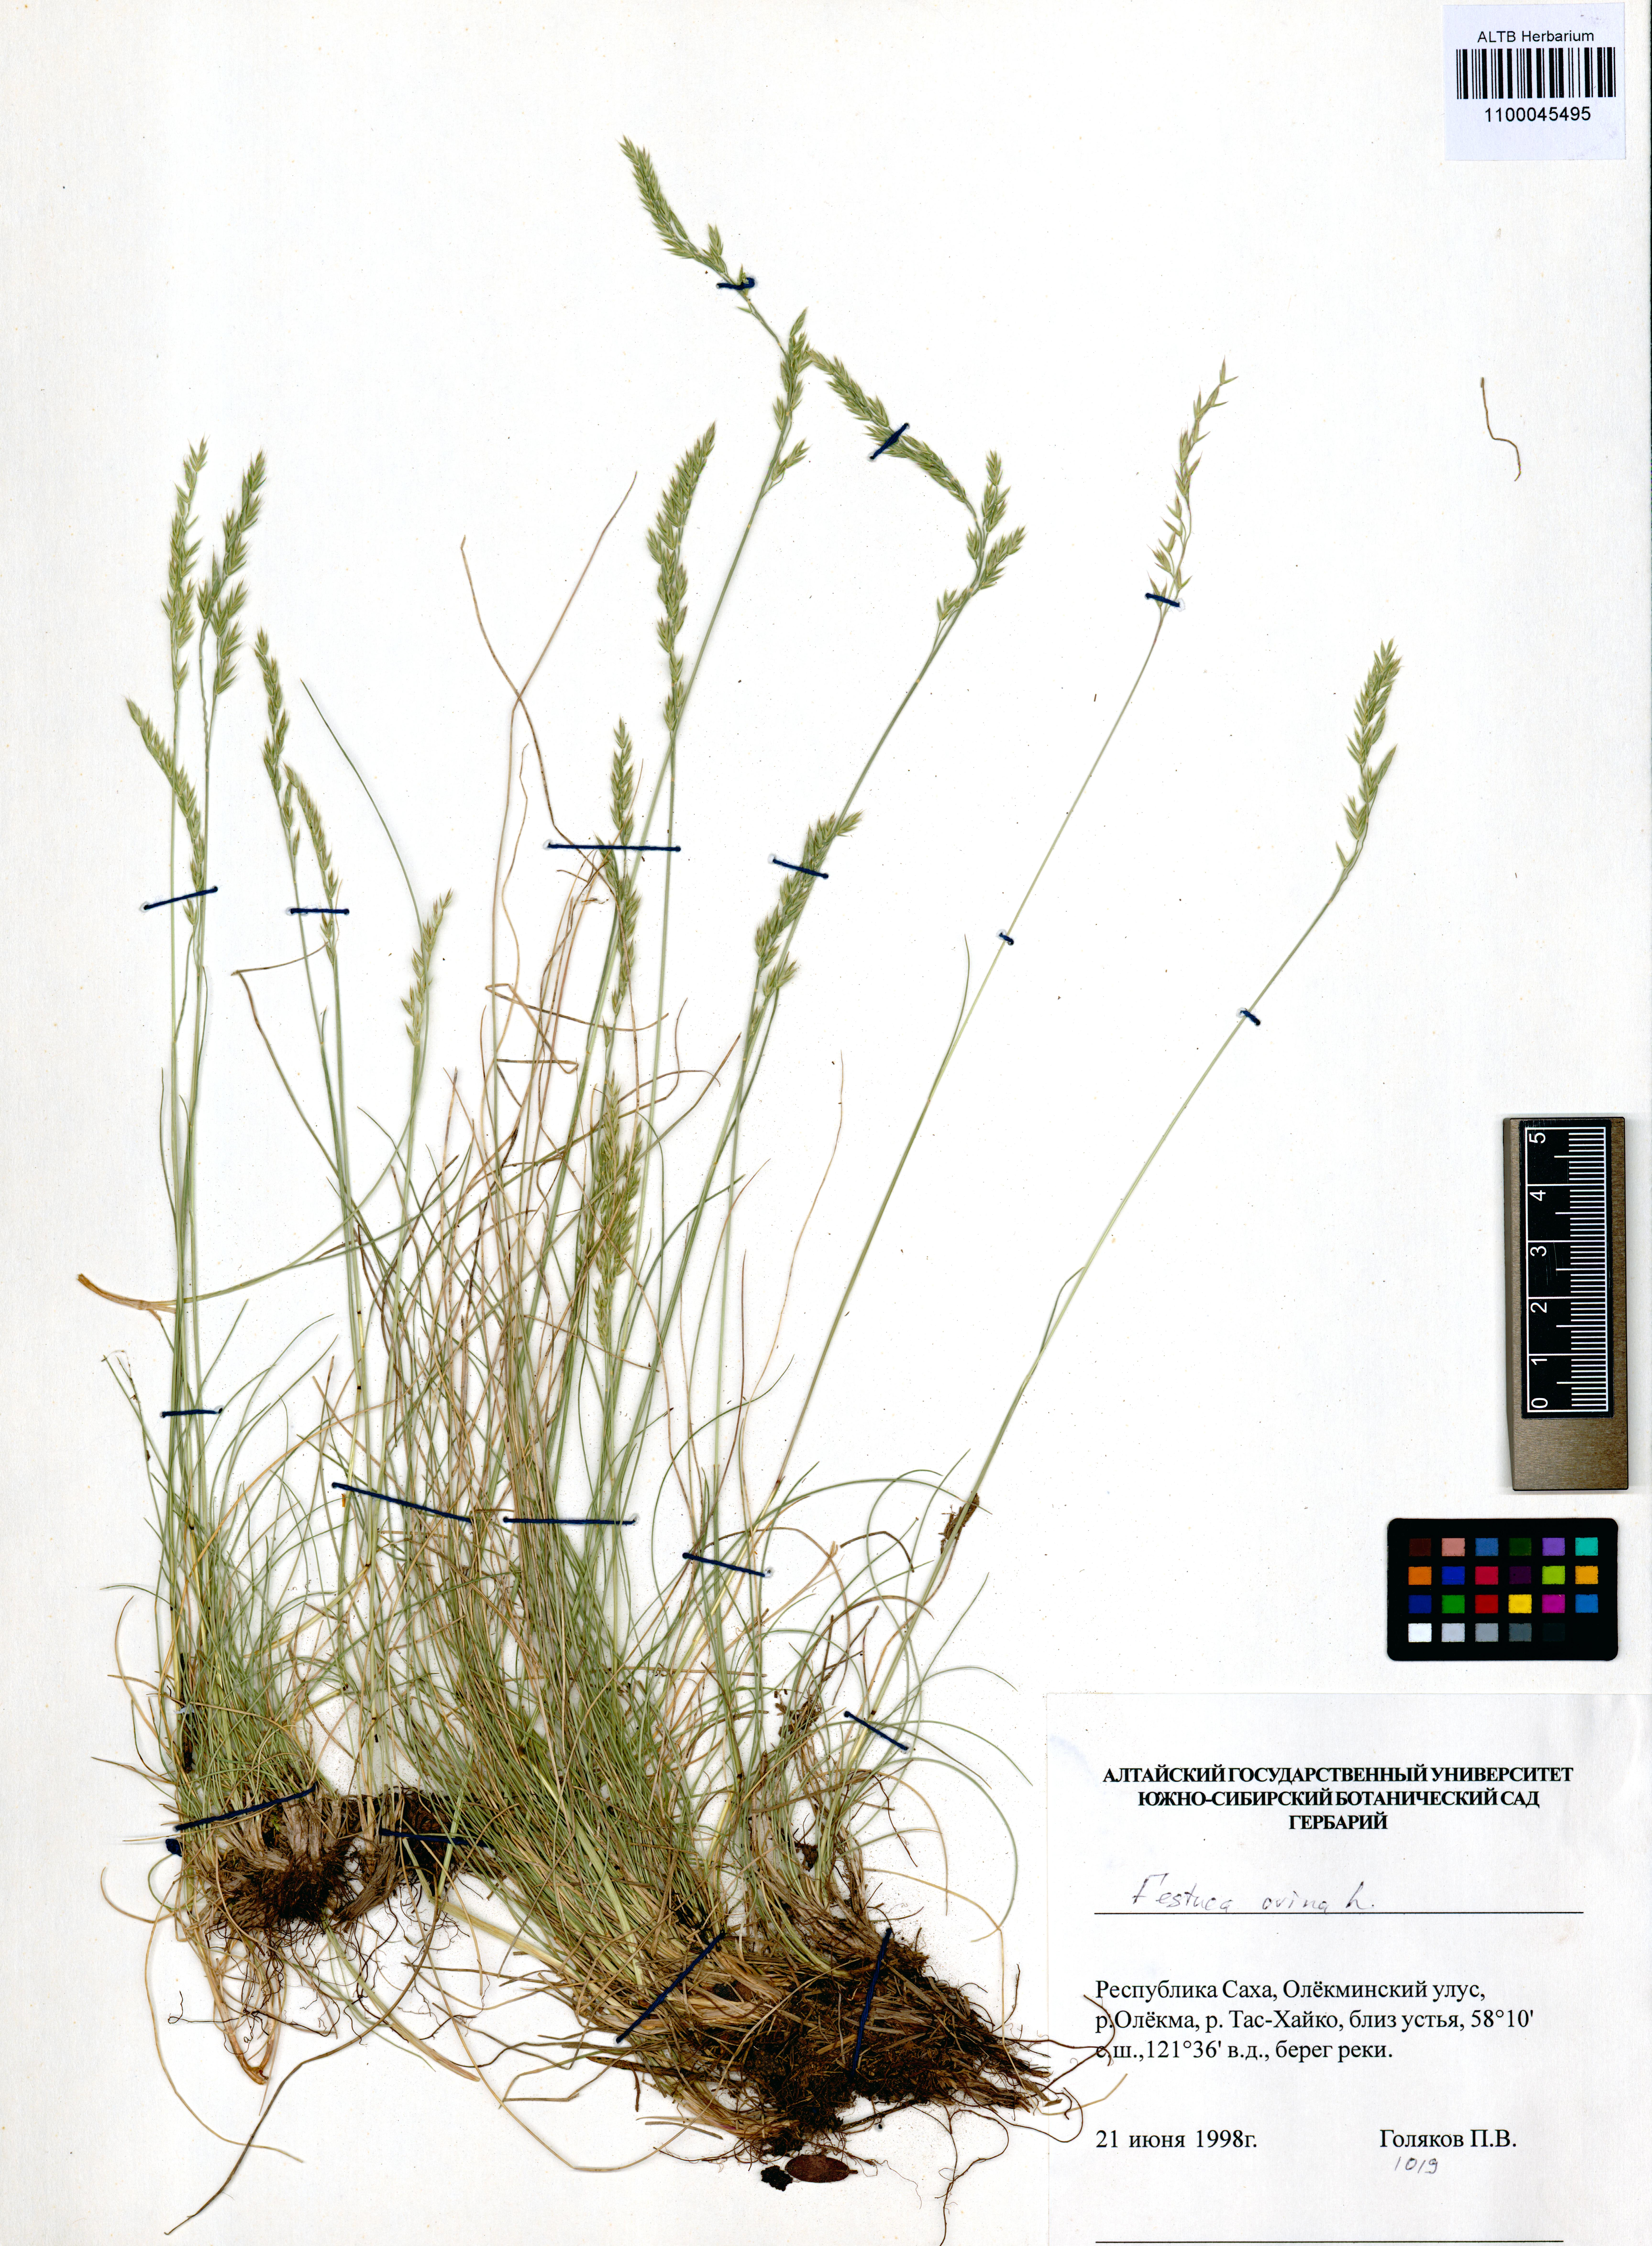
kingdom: Plantae
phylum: Tracheophyta
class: Liliopsida
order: Poales
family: Poaceae
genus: Festuca
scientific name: Festuca ovina
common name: Sheep fescue
